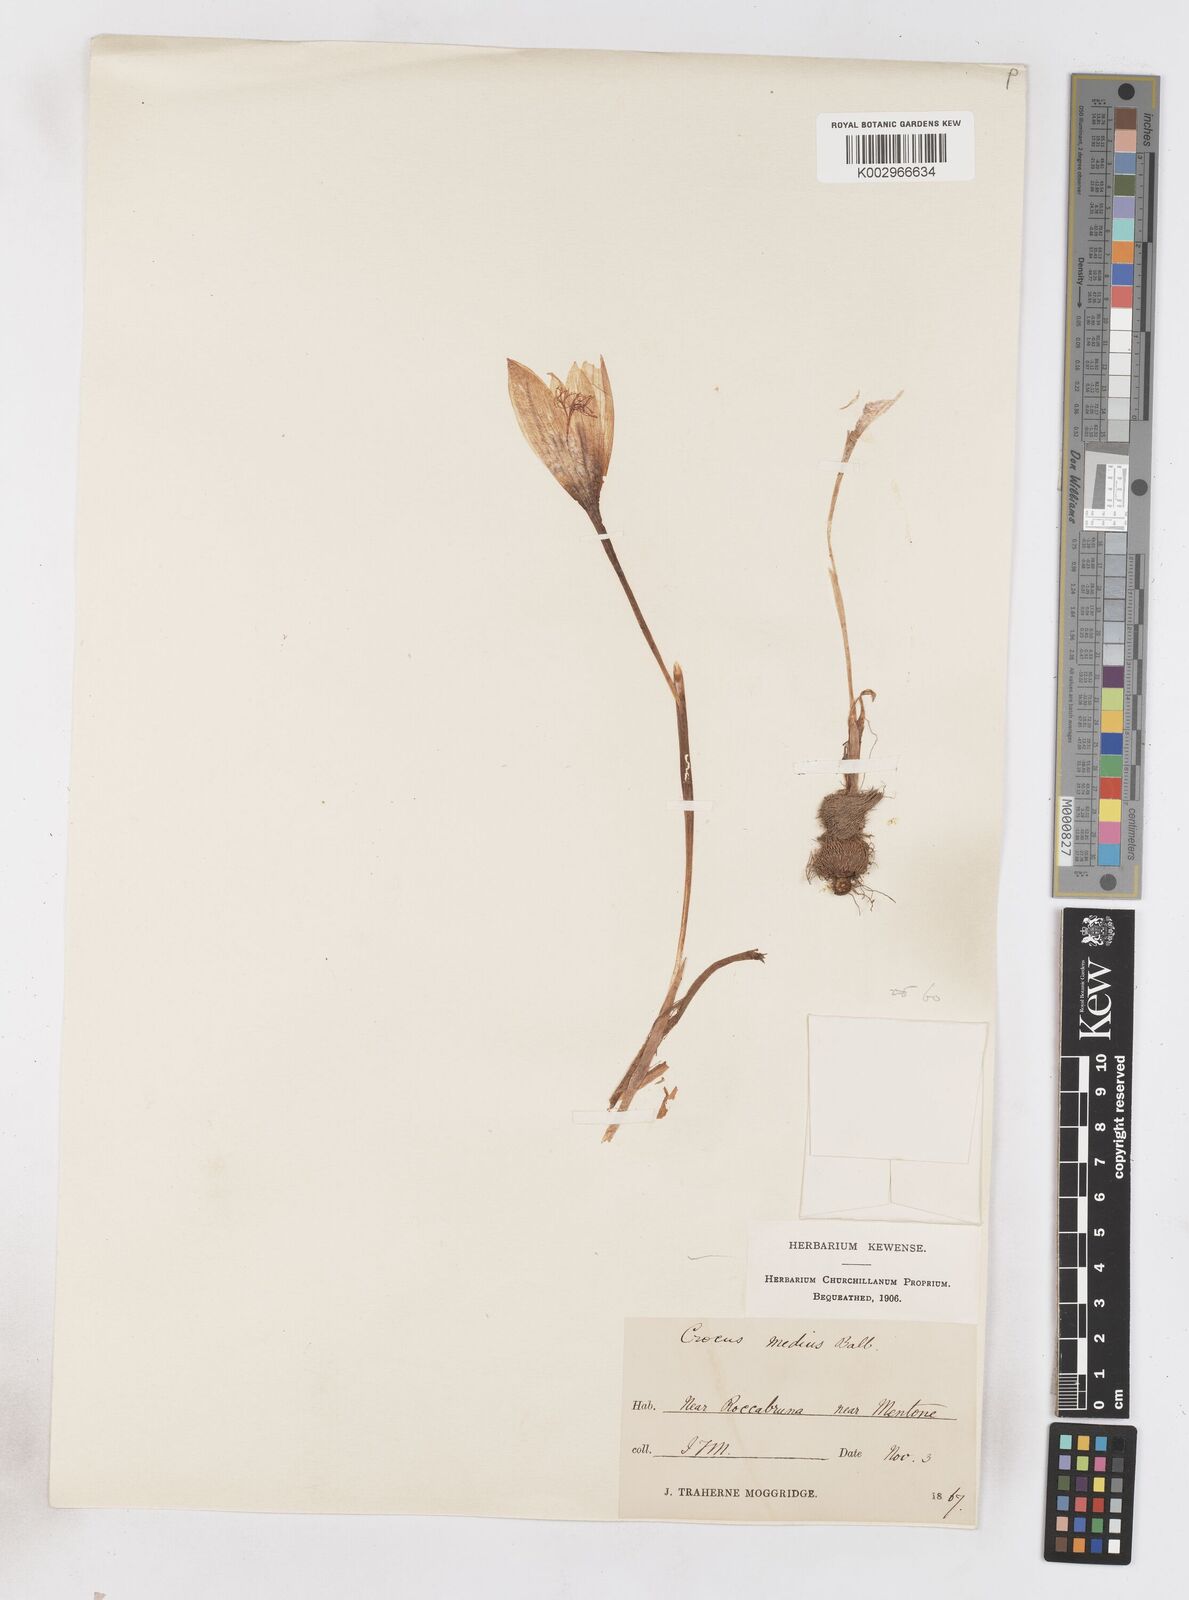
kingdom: Plantae
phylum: Tracheophyta
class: Liliopsida
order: Asparagales
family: Iridaceae
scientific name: Iridaceae
